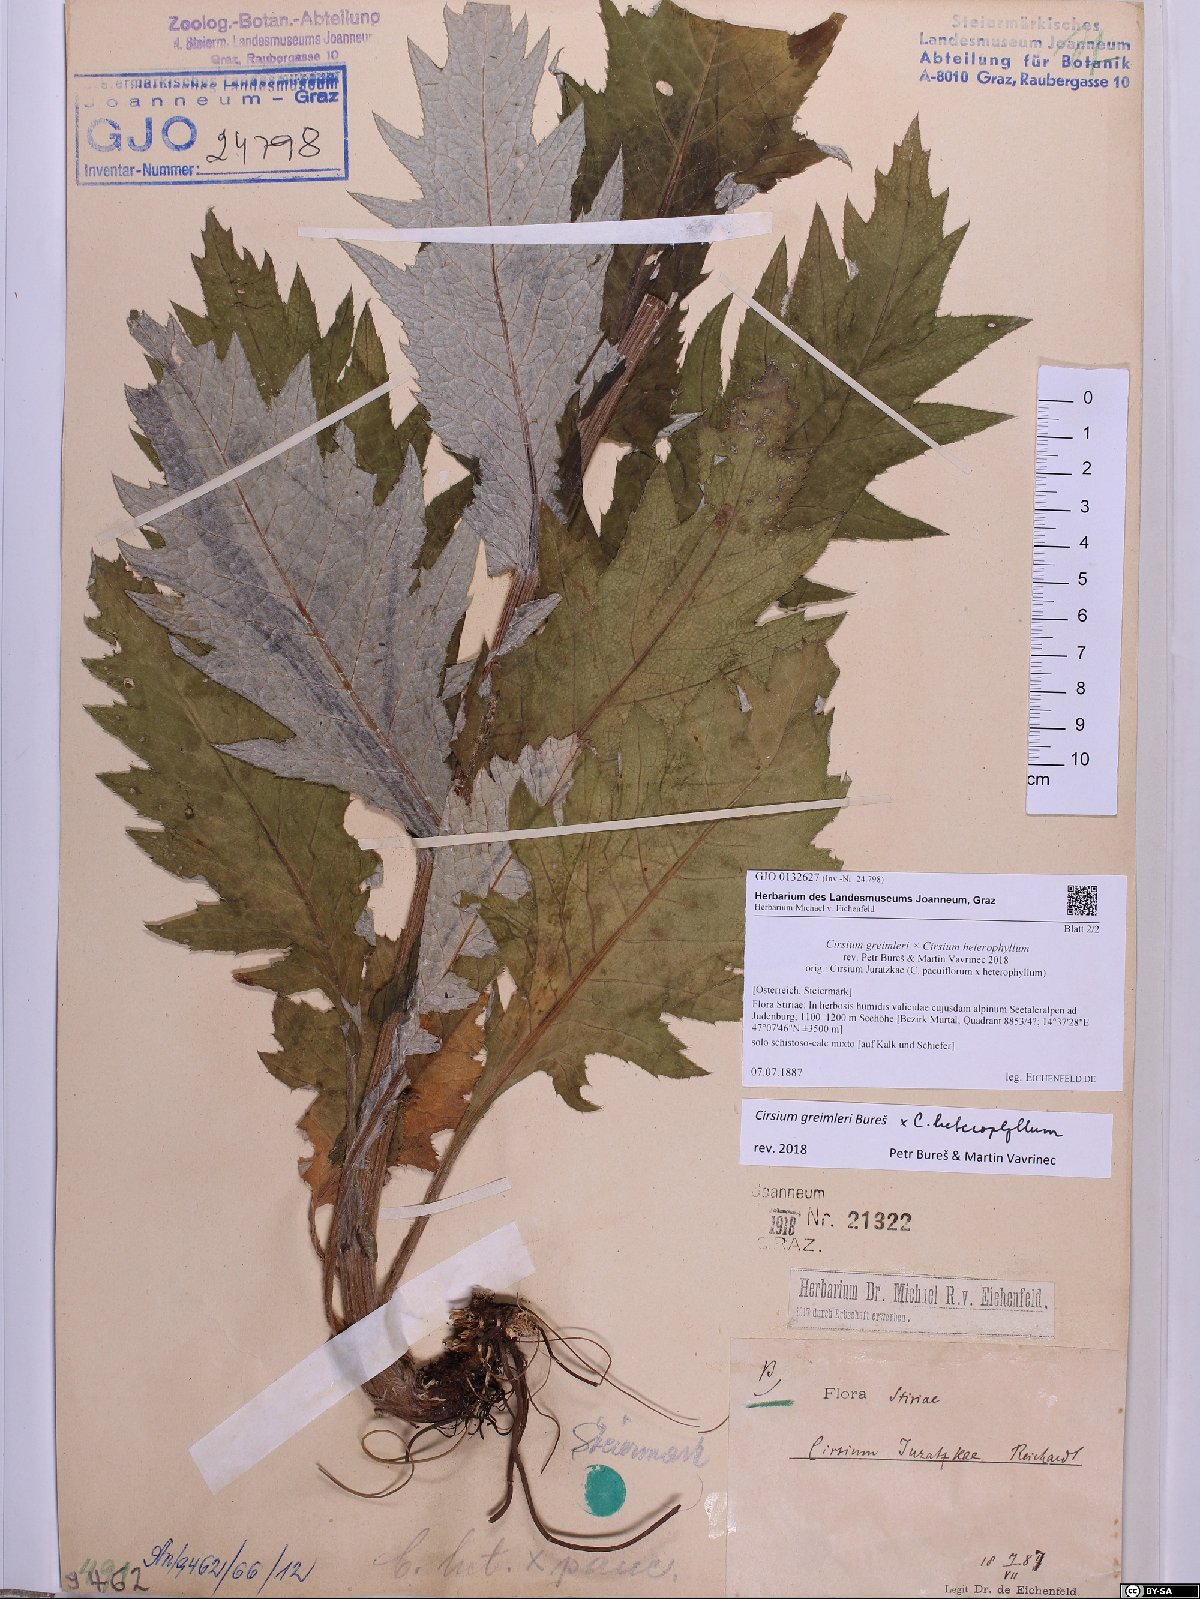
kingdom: Plantae
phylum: Tracheophyta
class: Magnoliopsida
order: Asterales
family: Asteraceae
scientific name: Asteraceae
